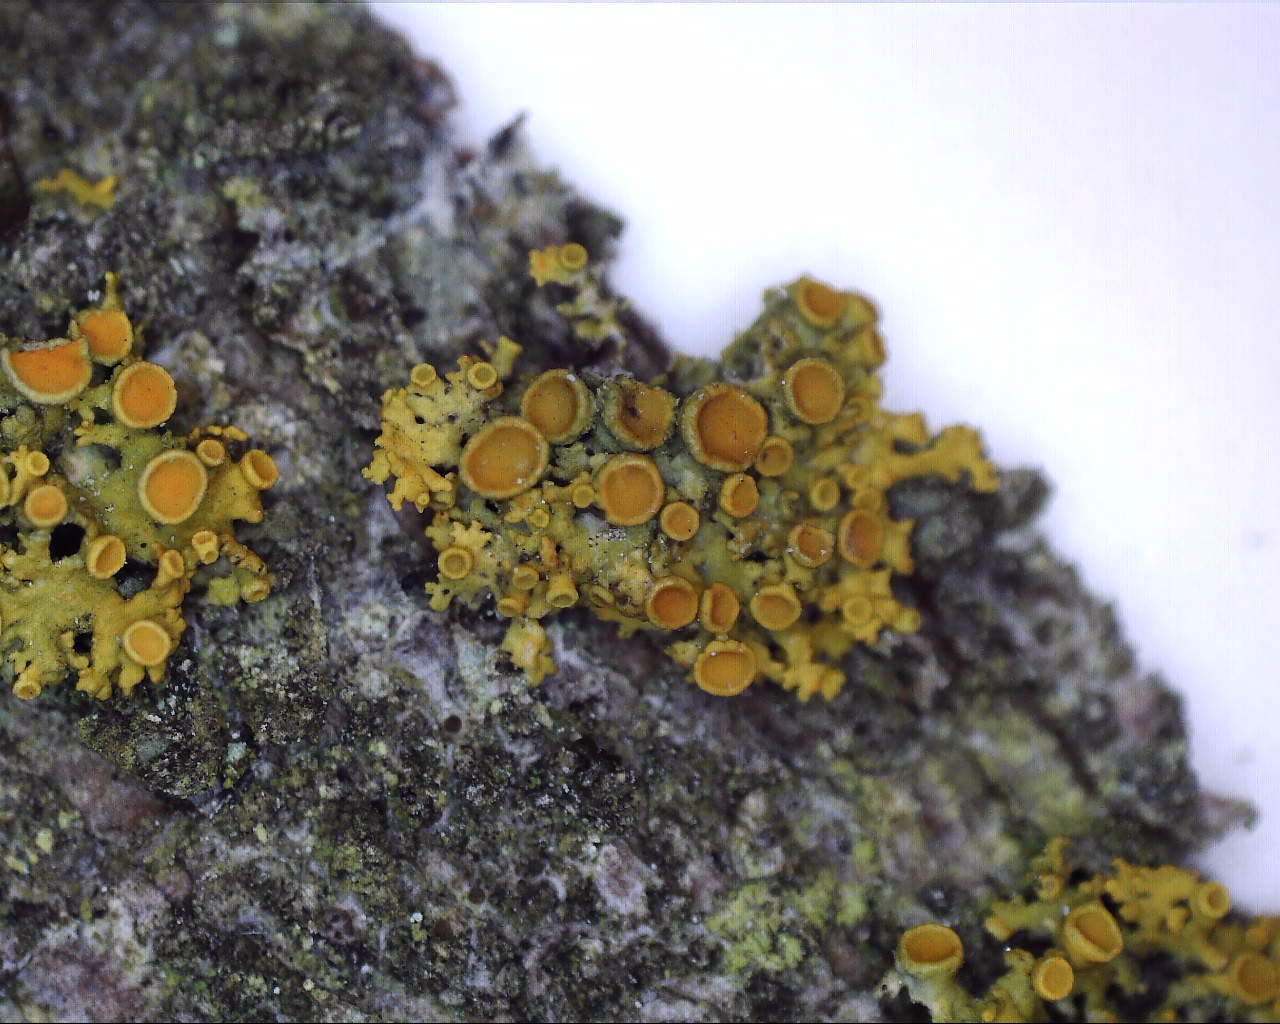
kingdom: Fungi
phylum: Ascomycota
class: Lecanoromycetes
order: Teloschistales
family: Teloschistaceae
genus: Polycauliona
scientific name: Polycauliona polycarpa
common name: mangefrugtet orangelav
